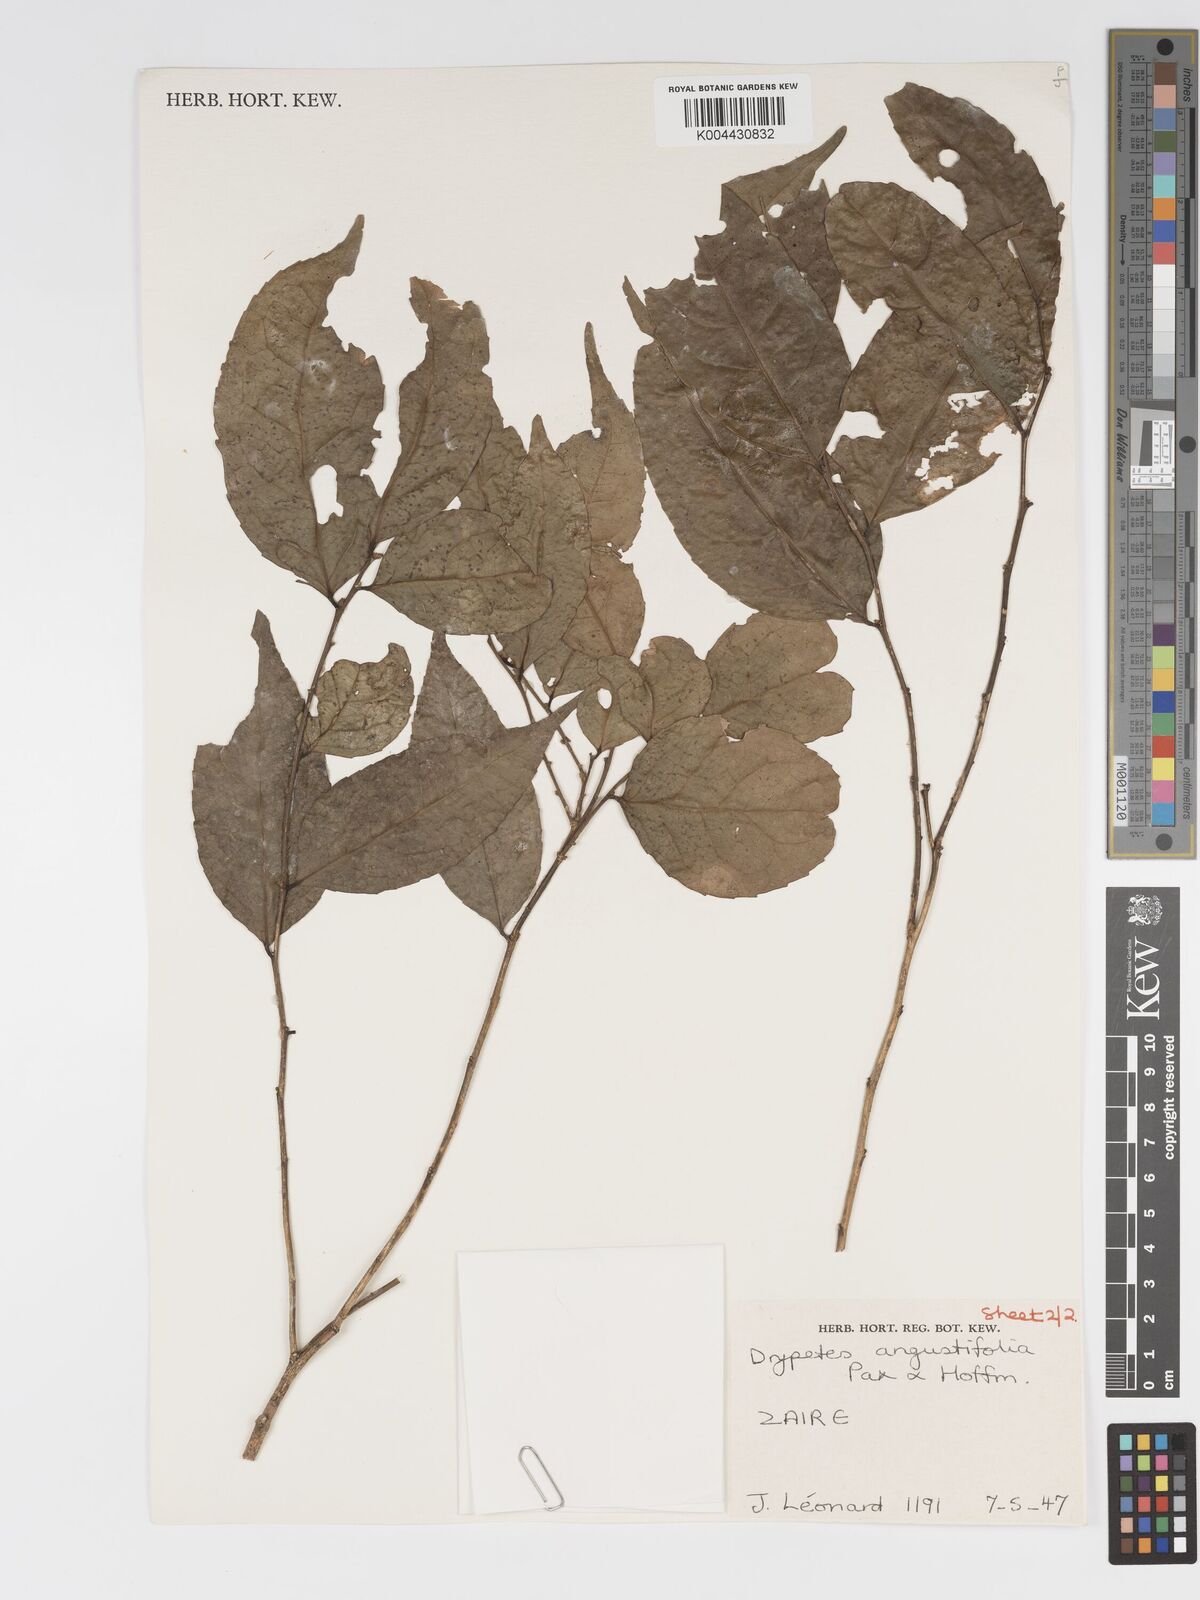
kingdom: Plantae
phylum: Tracheophyta
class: Magnoliopsida
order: Malpighiales
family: Putranjivaceae
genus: Drypetes
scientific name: Drypetes angustifolia
